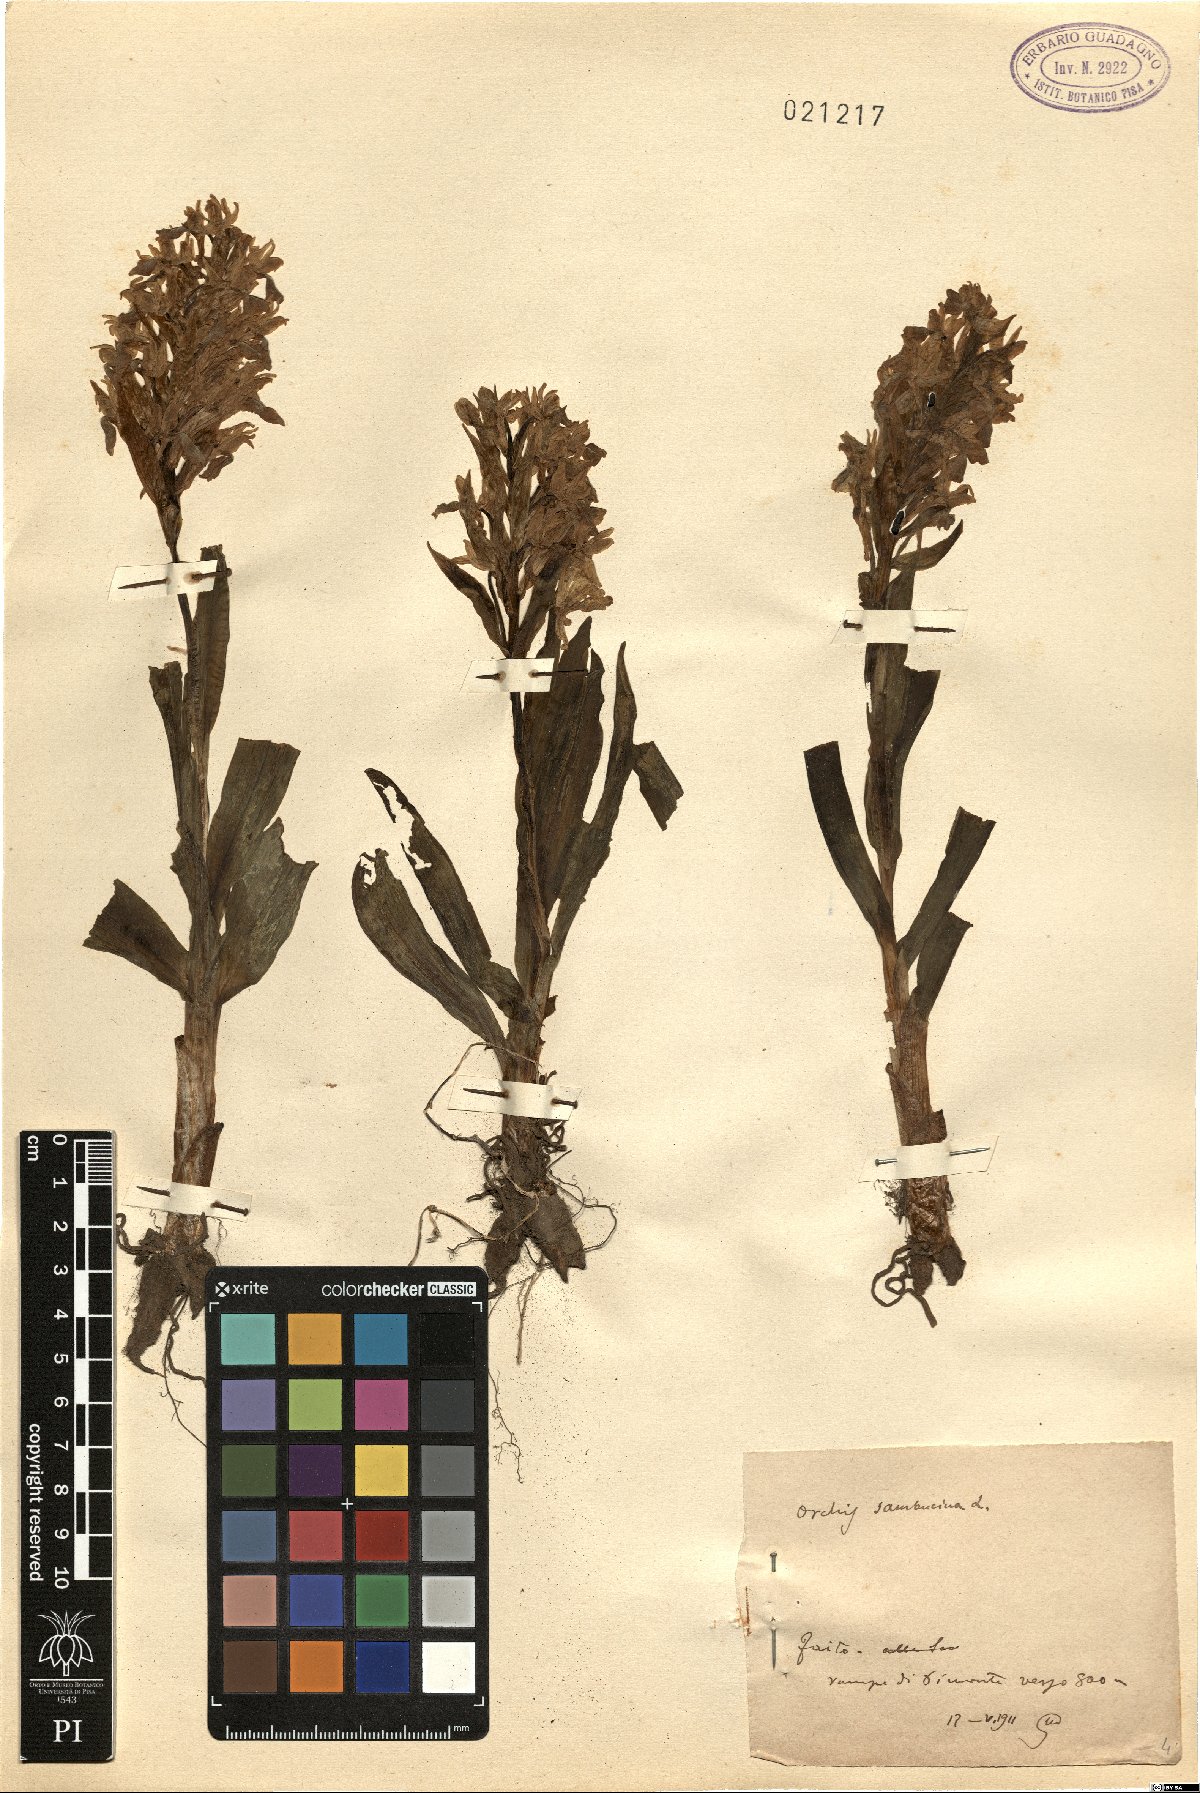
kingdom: Plantae
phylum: Tracheophyta
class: Liliopsida
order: Asparagales
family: Orchidaceae
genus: Dactylorhiza
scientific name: Dactylorhiza sambucina
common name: Elder-flowered orchid
